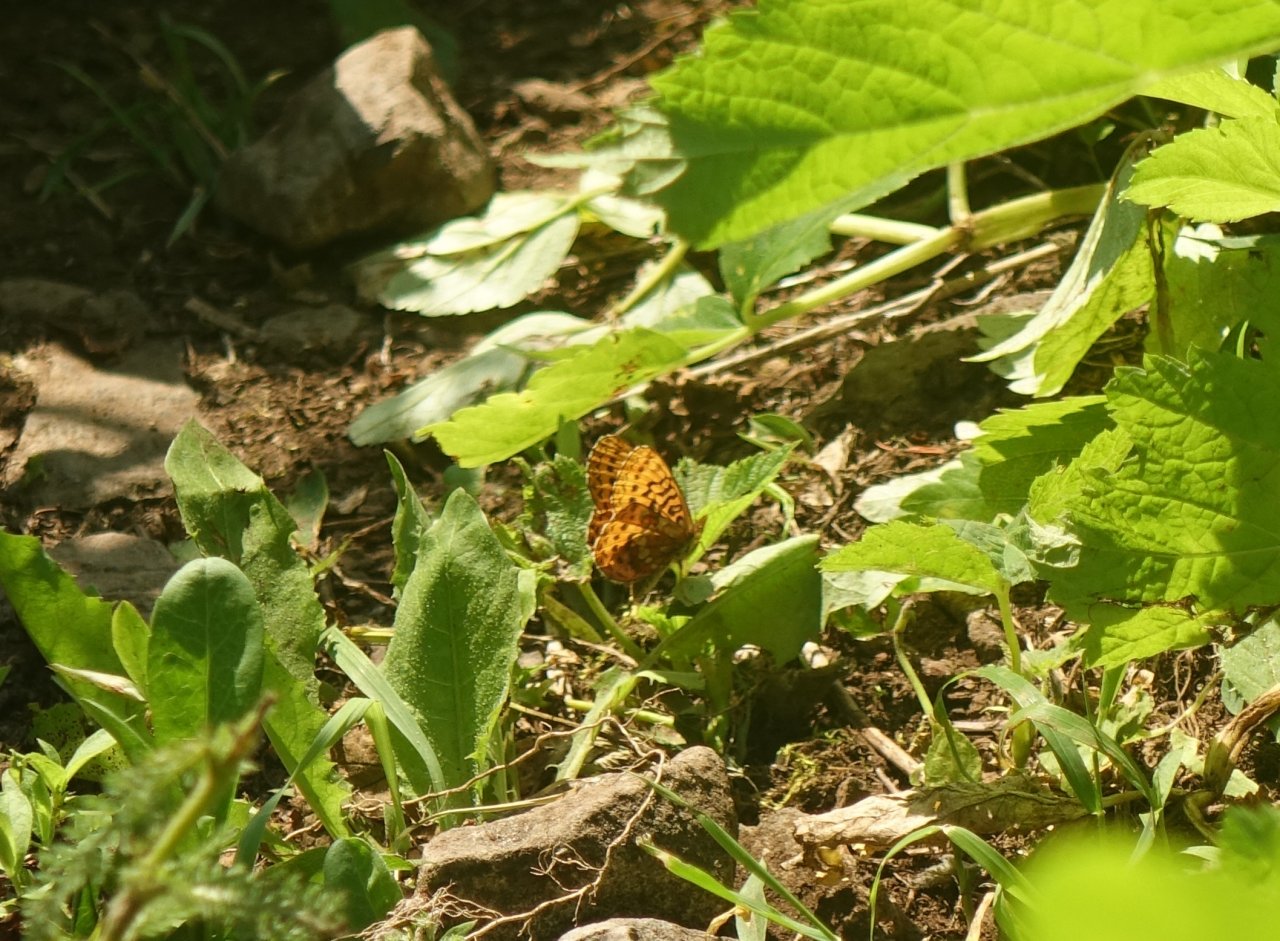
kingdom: Animalia
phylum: Arthropoda
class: Insecta
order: Lepidoptera
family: Nymphalidae
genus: Boloria
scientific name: Boloria epithore
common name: Pacific Fritillary
